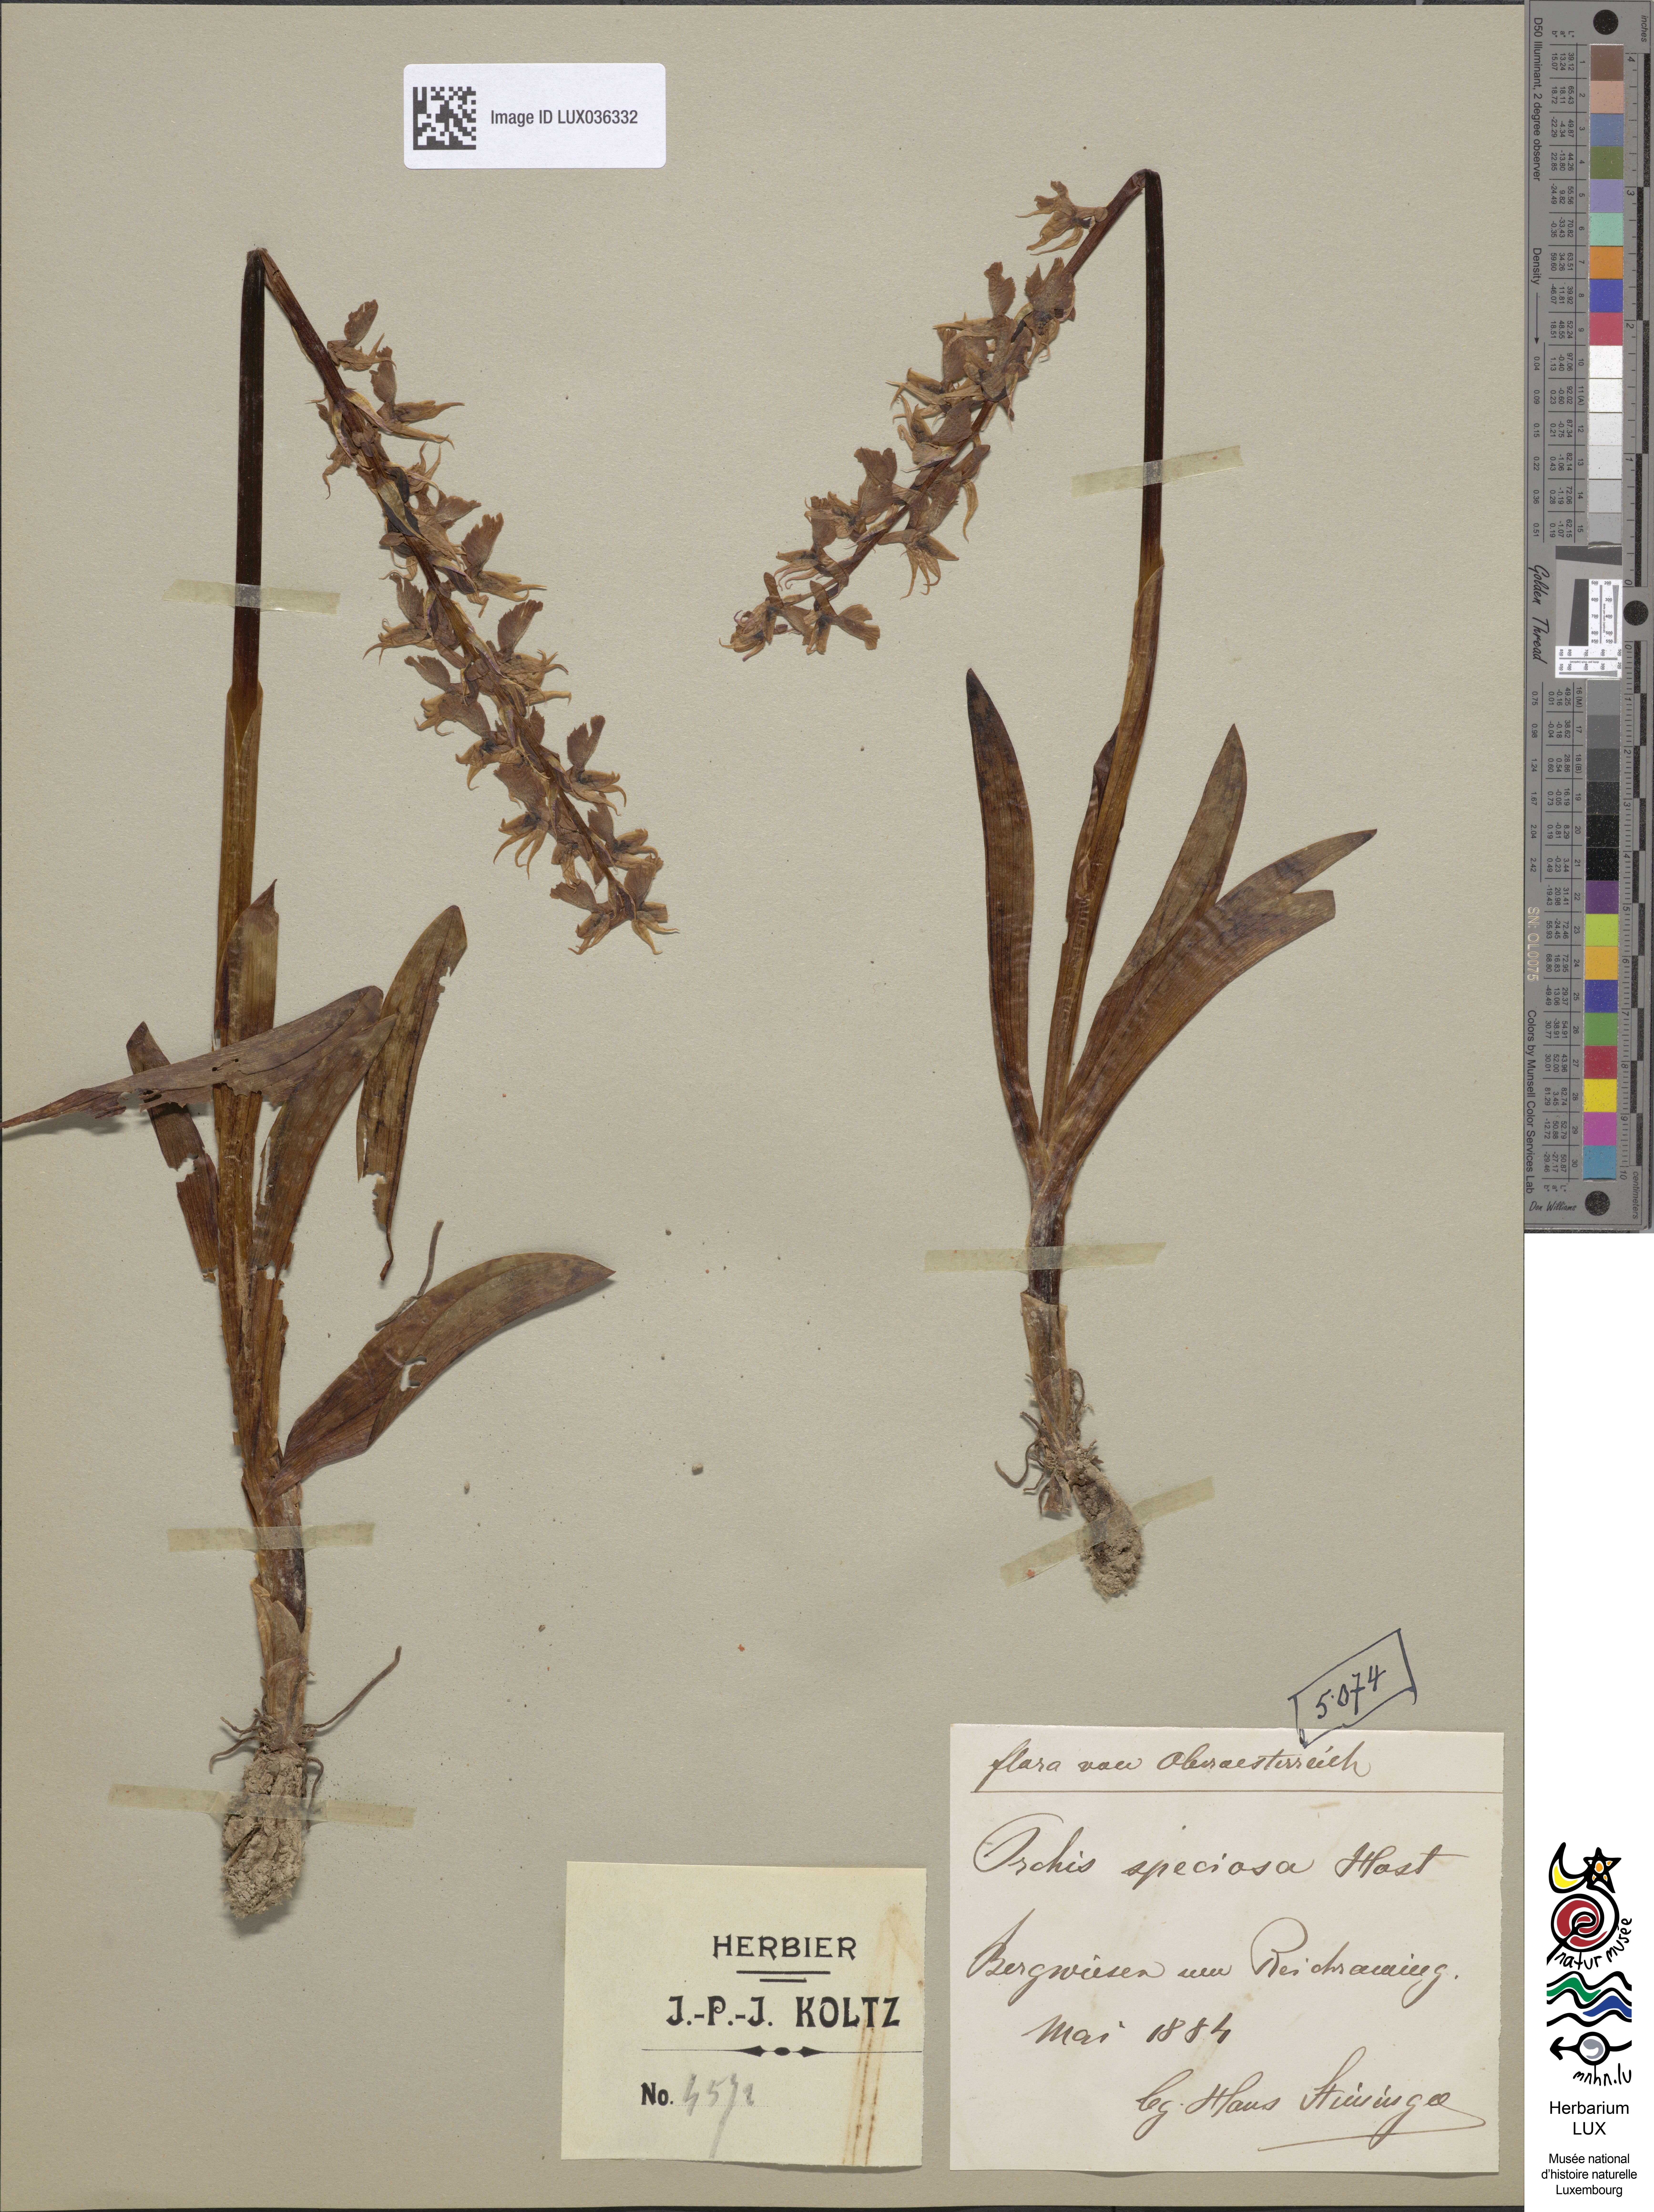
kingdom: Plantae
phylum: Tracheophyta
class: Liliopsida
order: Asparagales
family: Orchidaceae
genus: Orchis
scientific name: Orchis mascula
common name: Early-purple orchid
